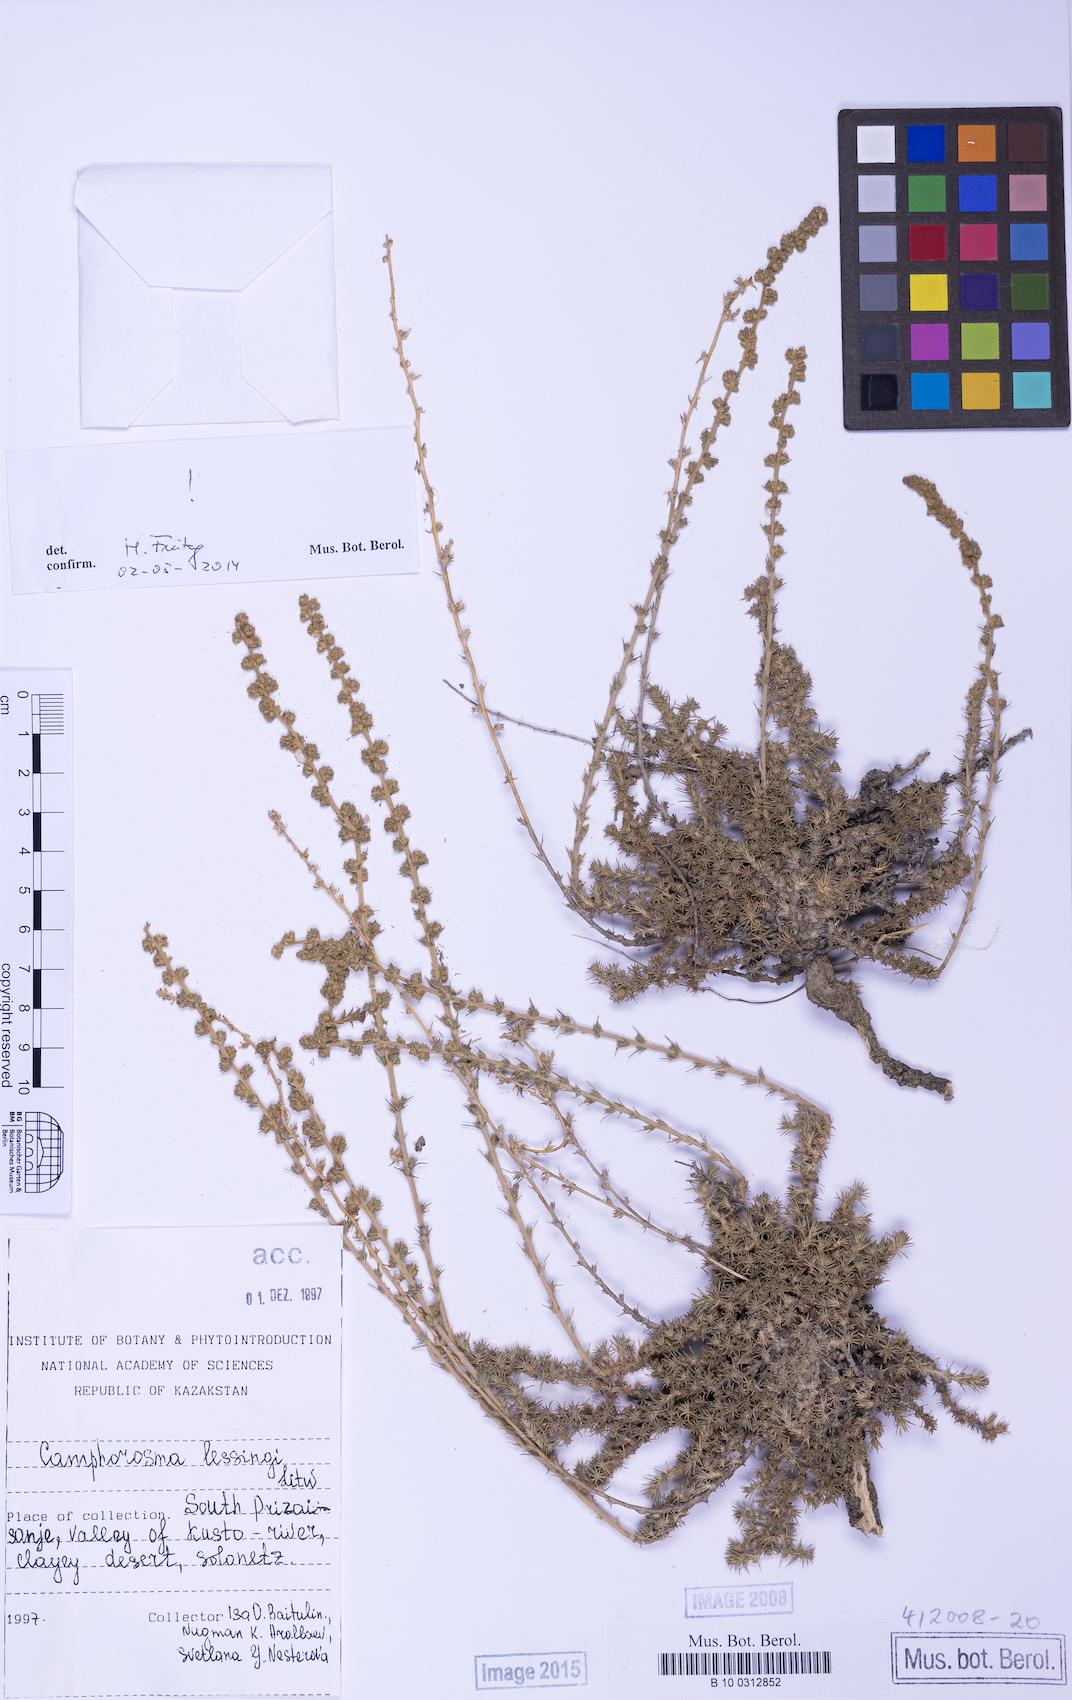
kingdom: Plantae
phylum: Tracheophyta
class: Magnoliopsida
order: Caryophyllales
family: Amaranthaceae
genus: Camphorosma
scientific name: Camphorosma monspeliaca
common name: Camphorfume
